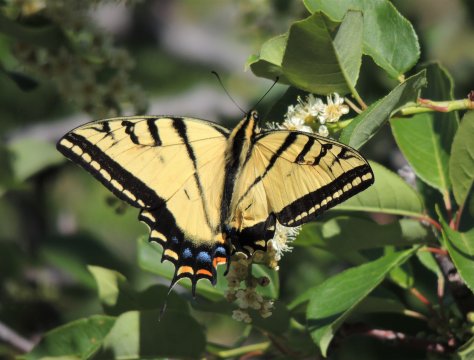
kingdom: Animalia
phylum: Arthropoda
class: Insecta
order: Lepidoptera
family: Papilionidae
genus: Papilio
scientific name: Papilio multicaudata
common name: Two-tailed Swallowtail
